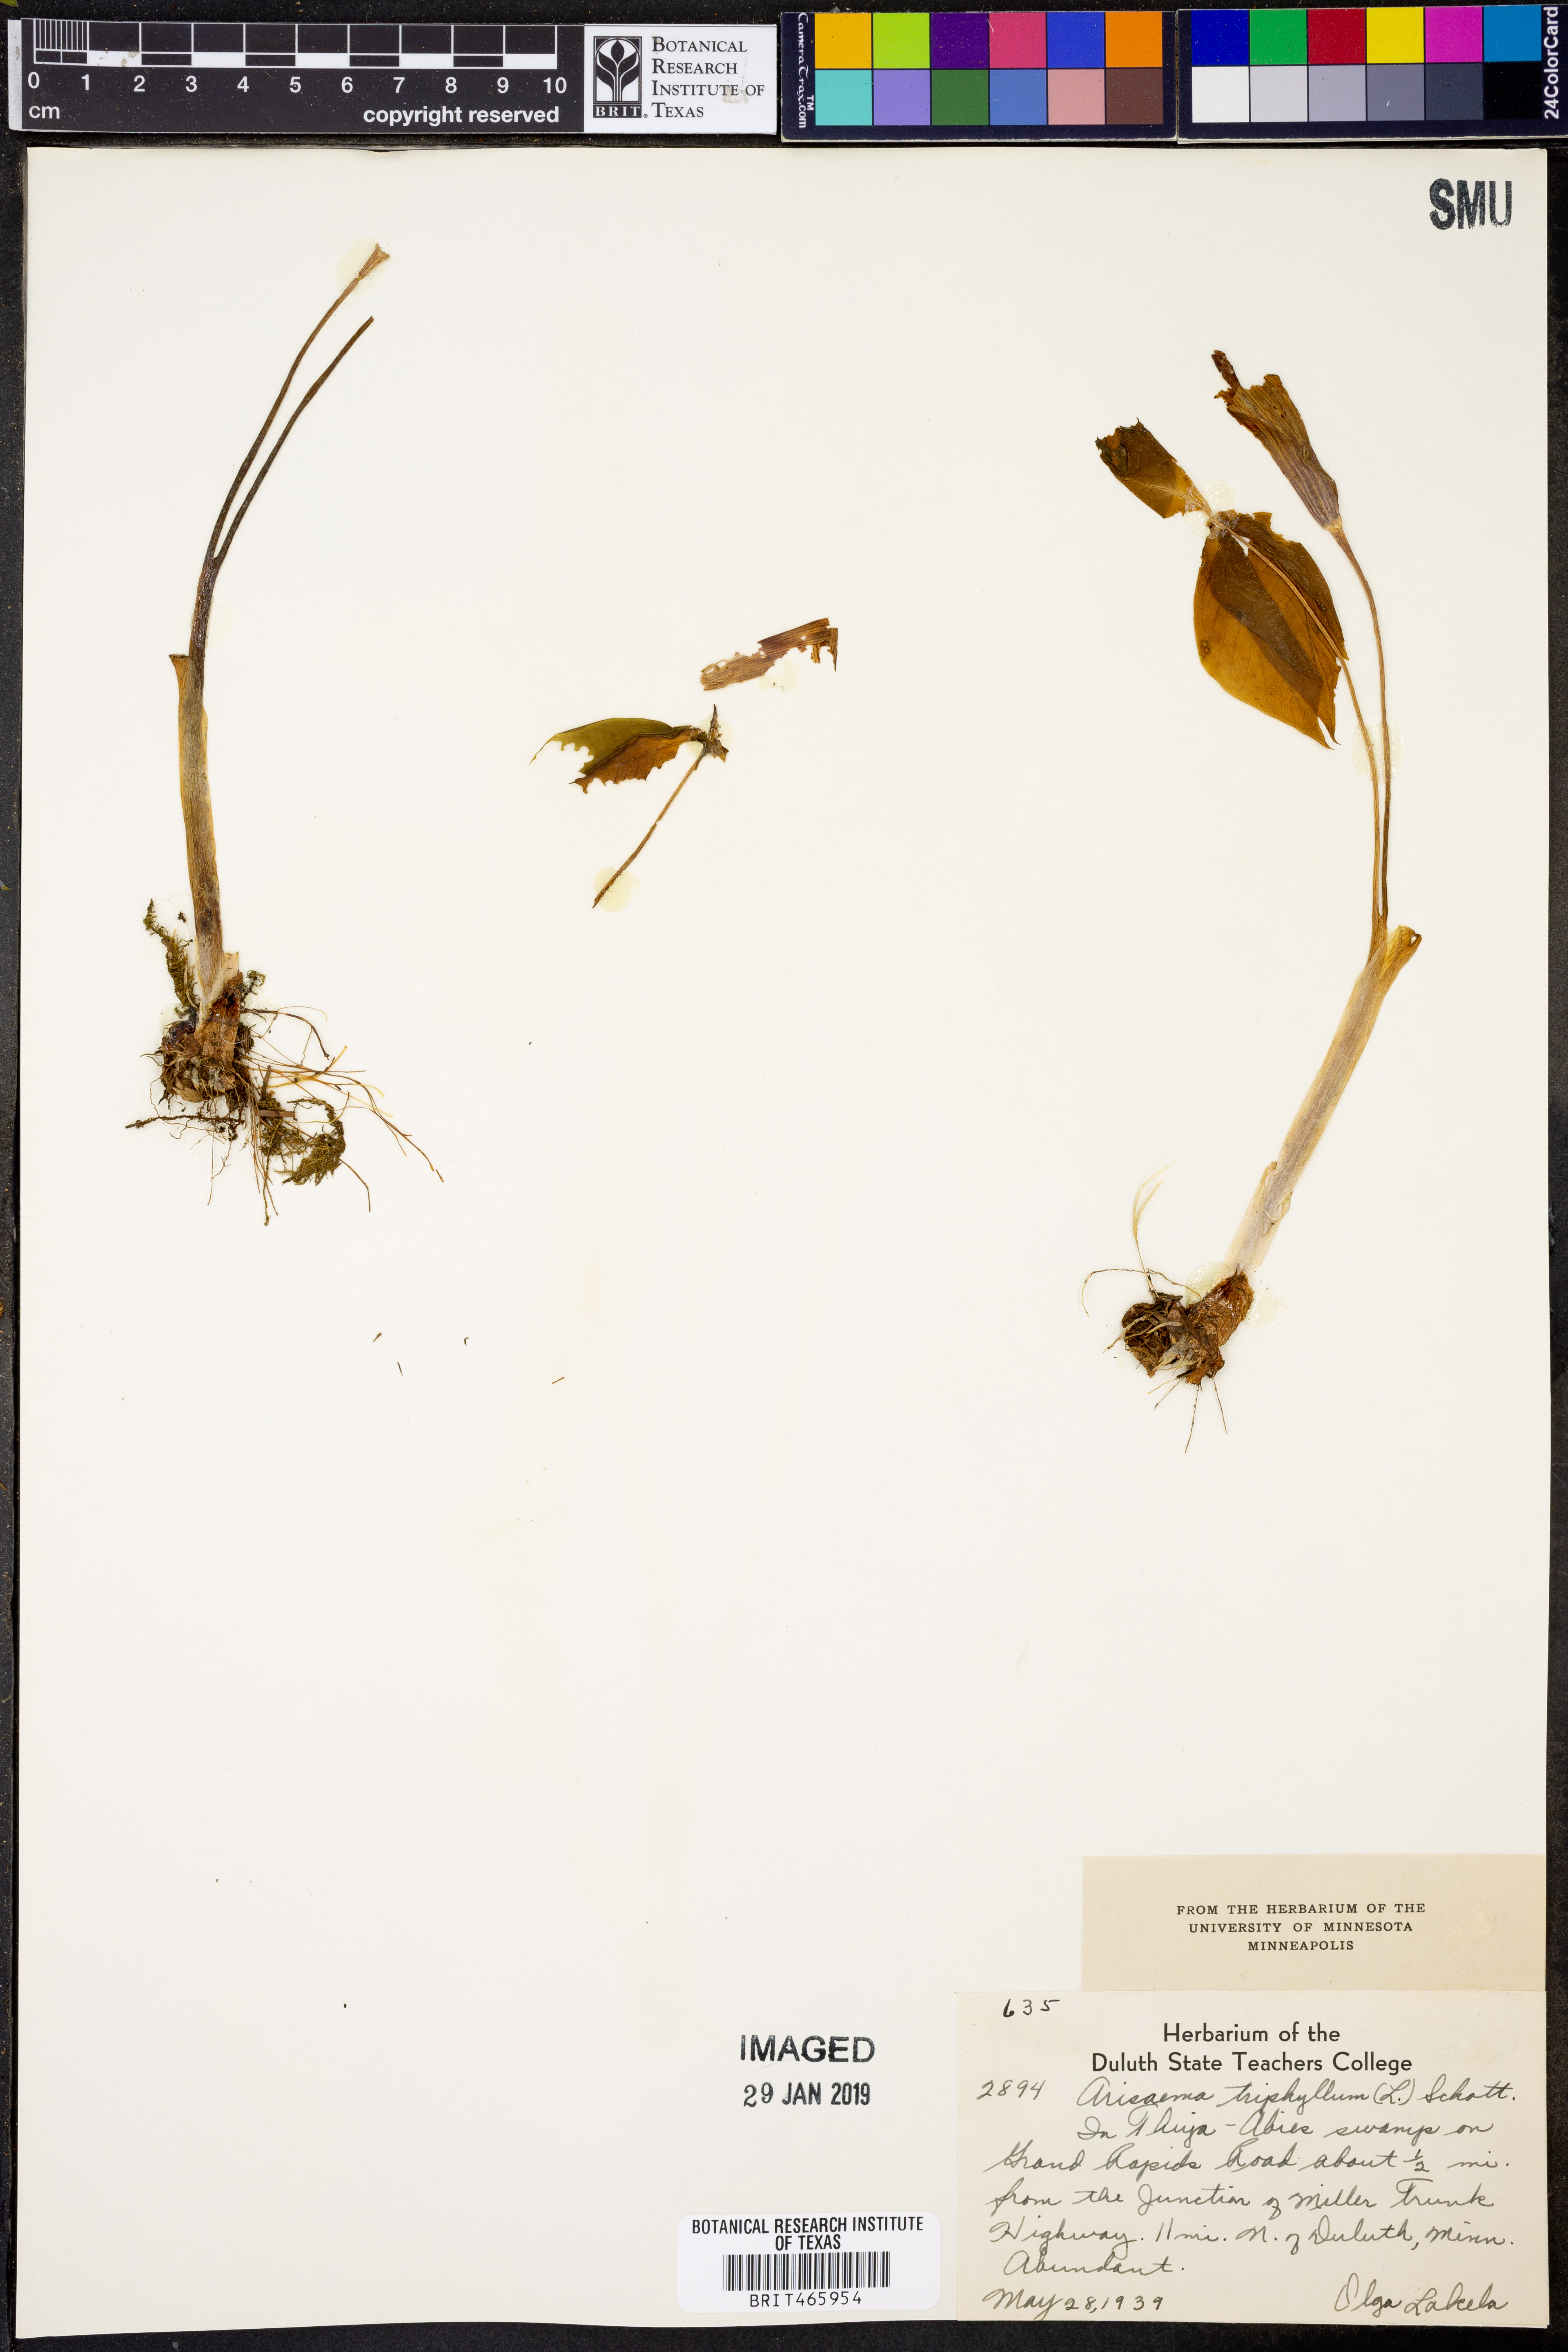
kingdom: Plantae
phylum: Tracheophyta
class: Liliopsida
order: Alismatales
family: Araceae
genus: Arisaema
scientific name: Arisaema triphyllum
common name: Jack-in-the-pulpit
